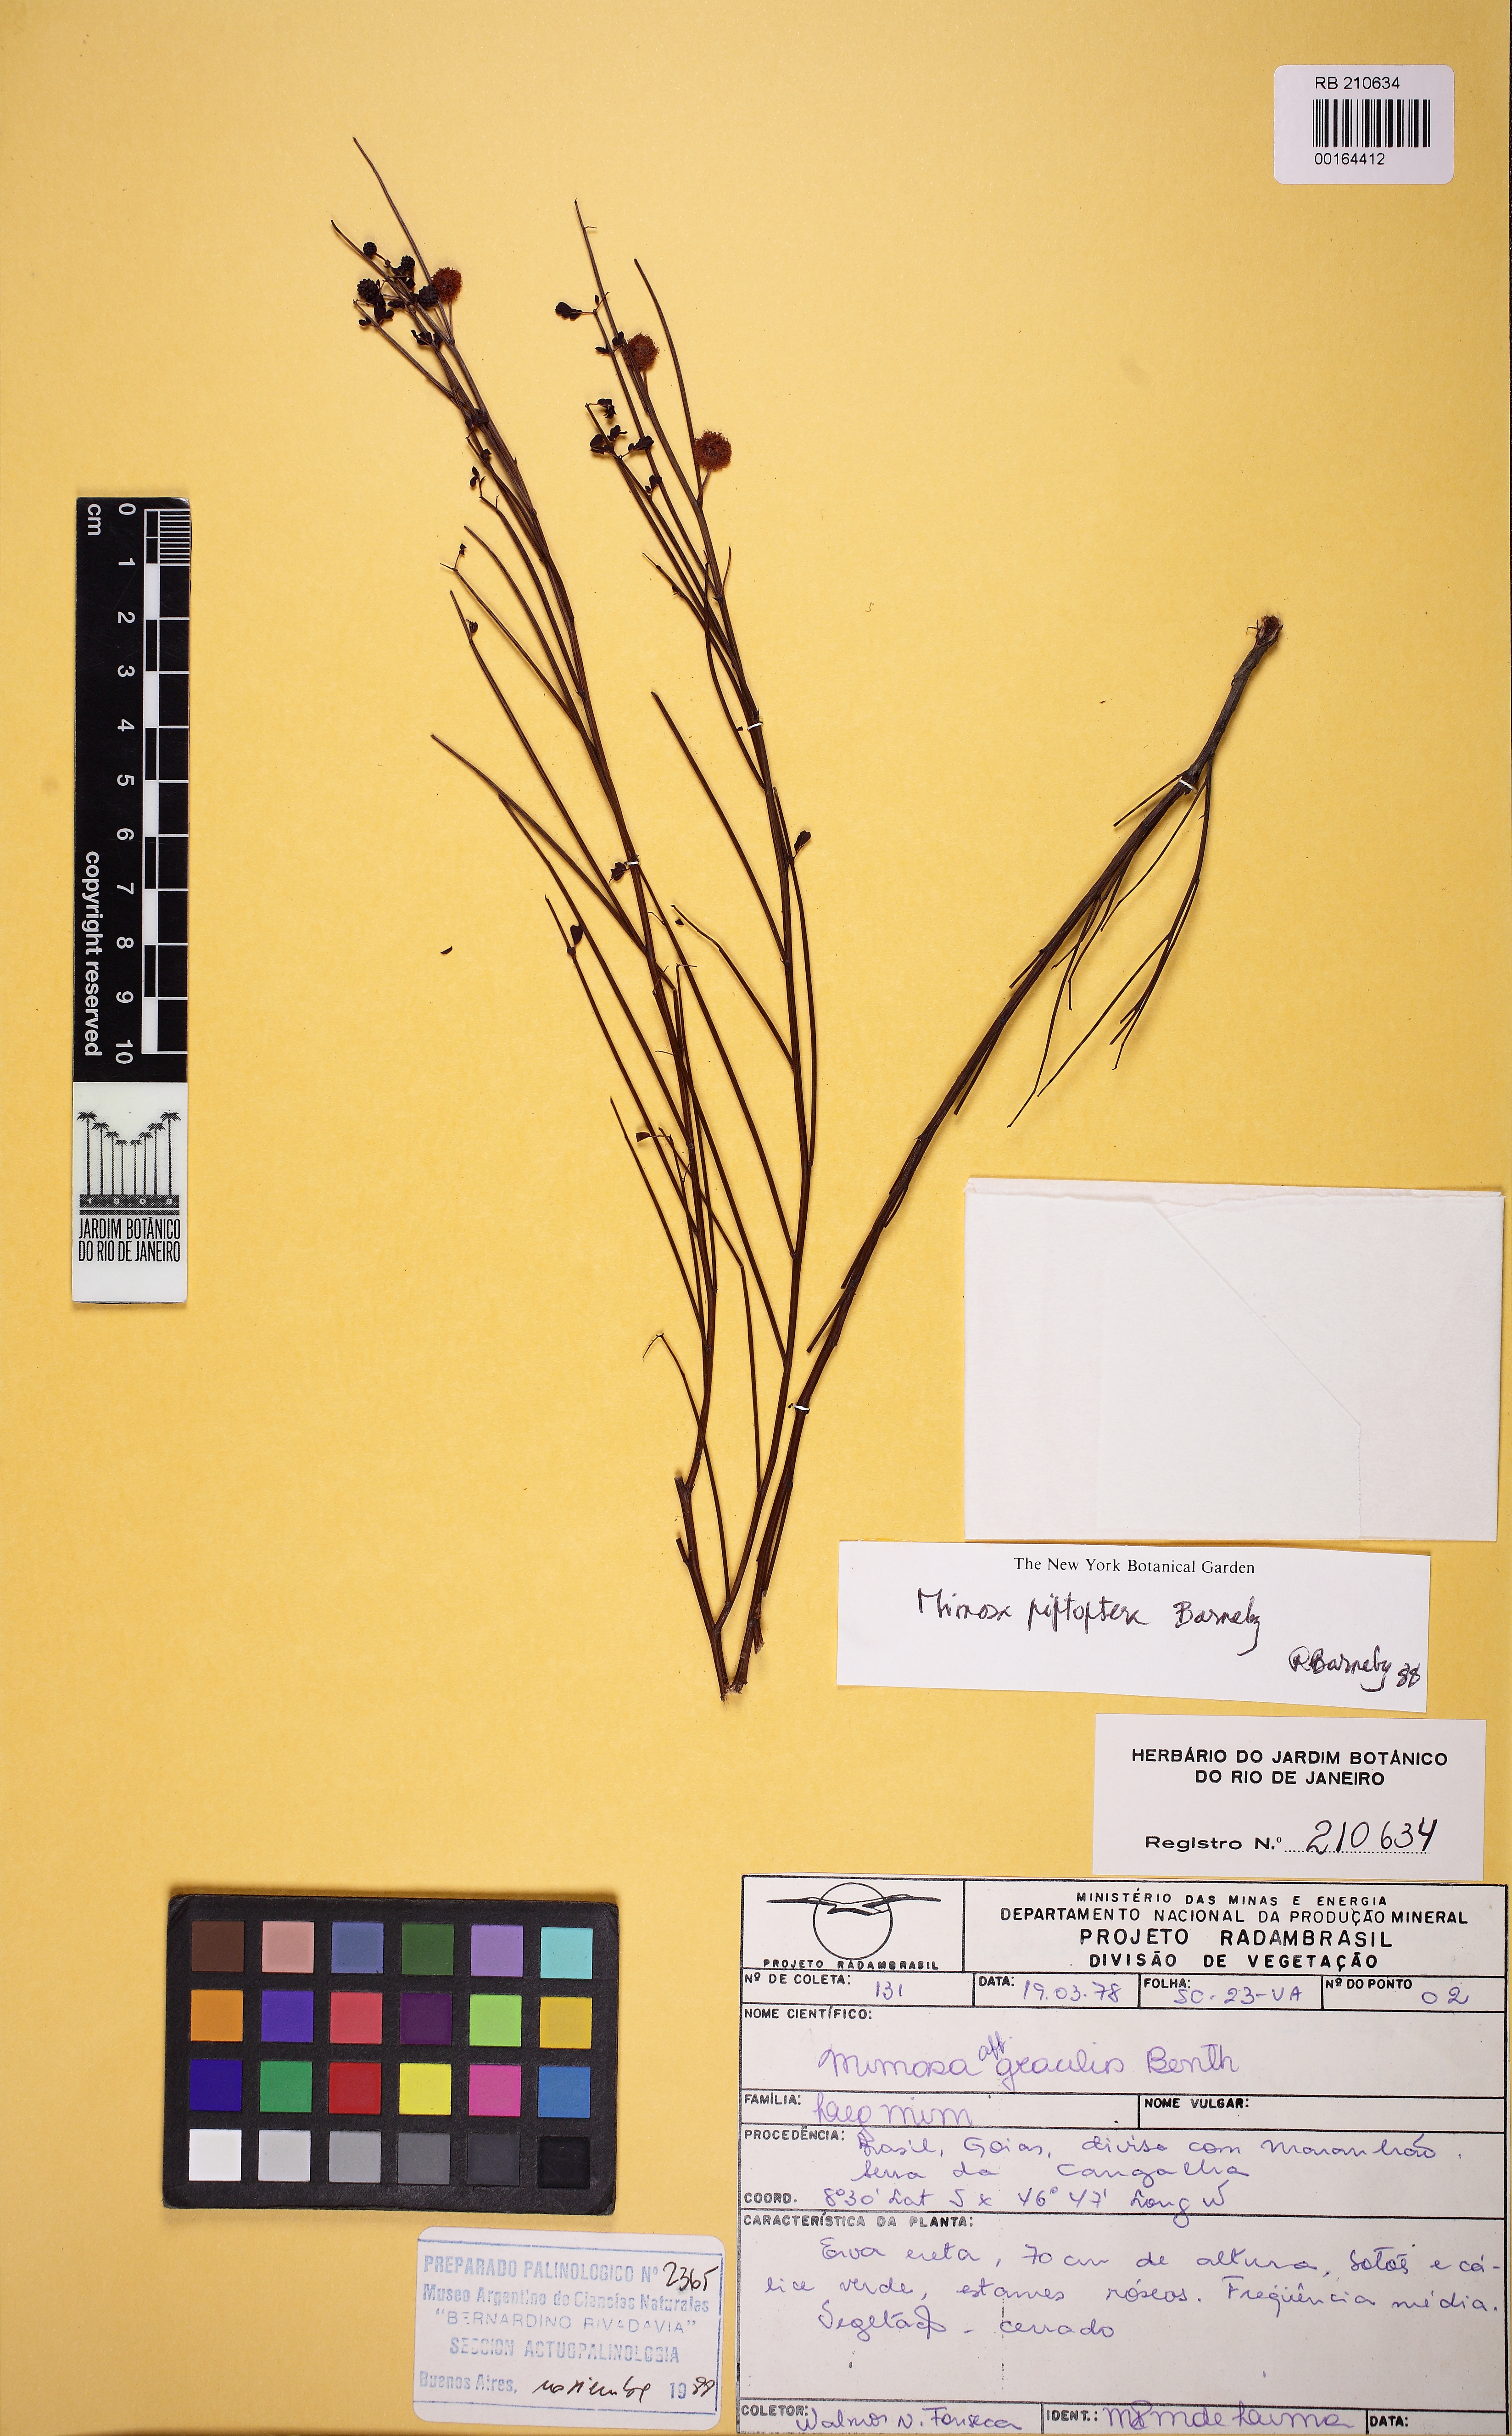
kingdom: Plantae
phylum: Tracheophyta
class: Magnoliopsida
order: Fabales
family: Fabaceae
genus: Mimosa
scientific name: Mimosa piptoptera
